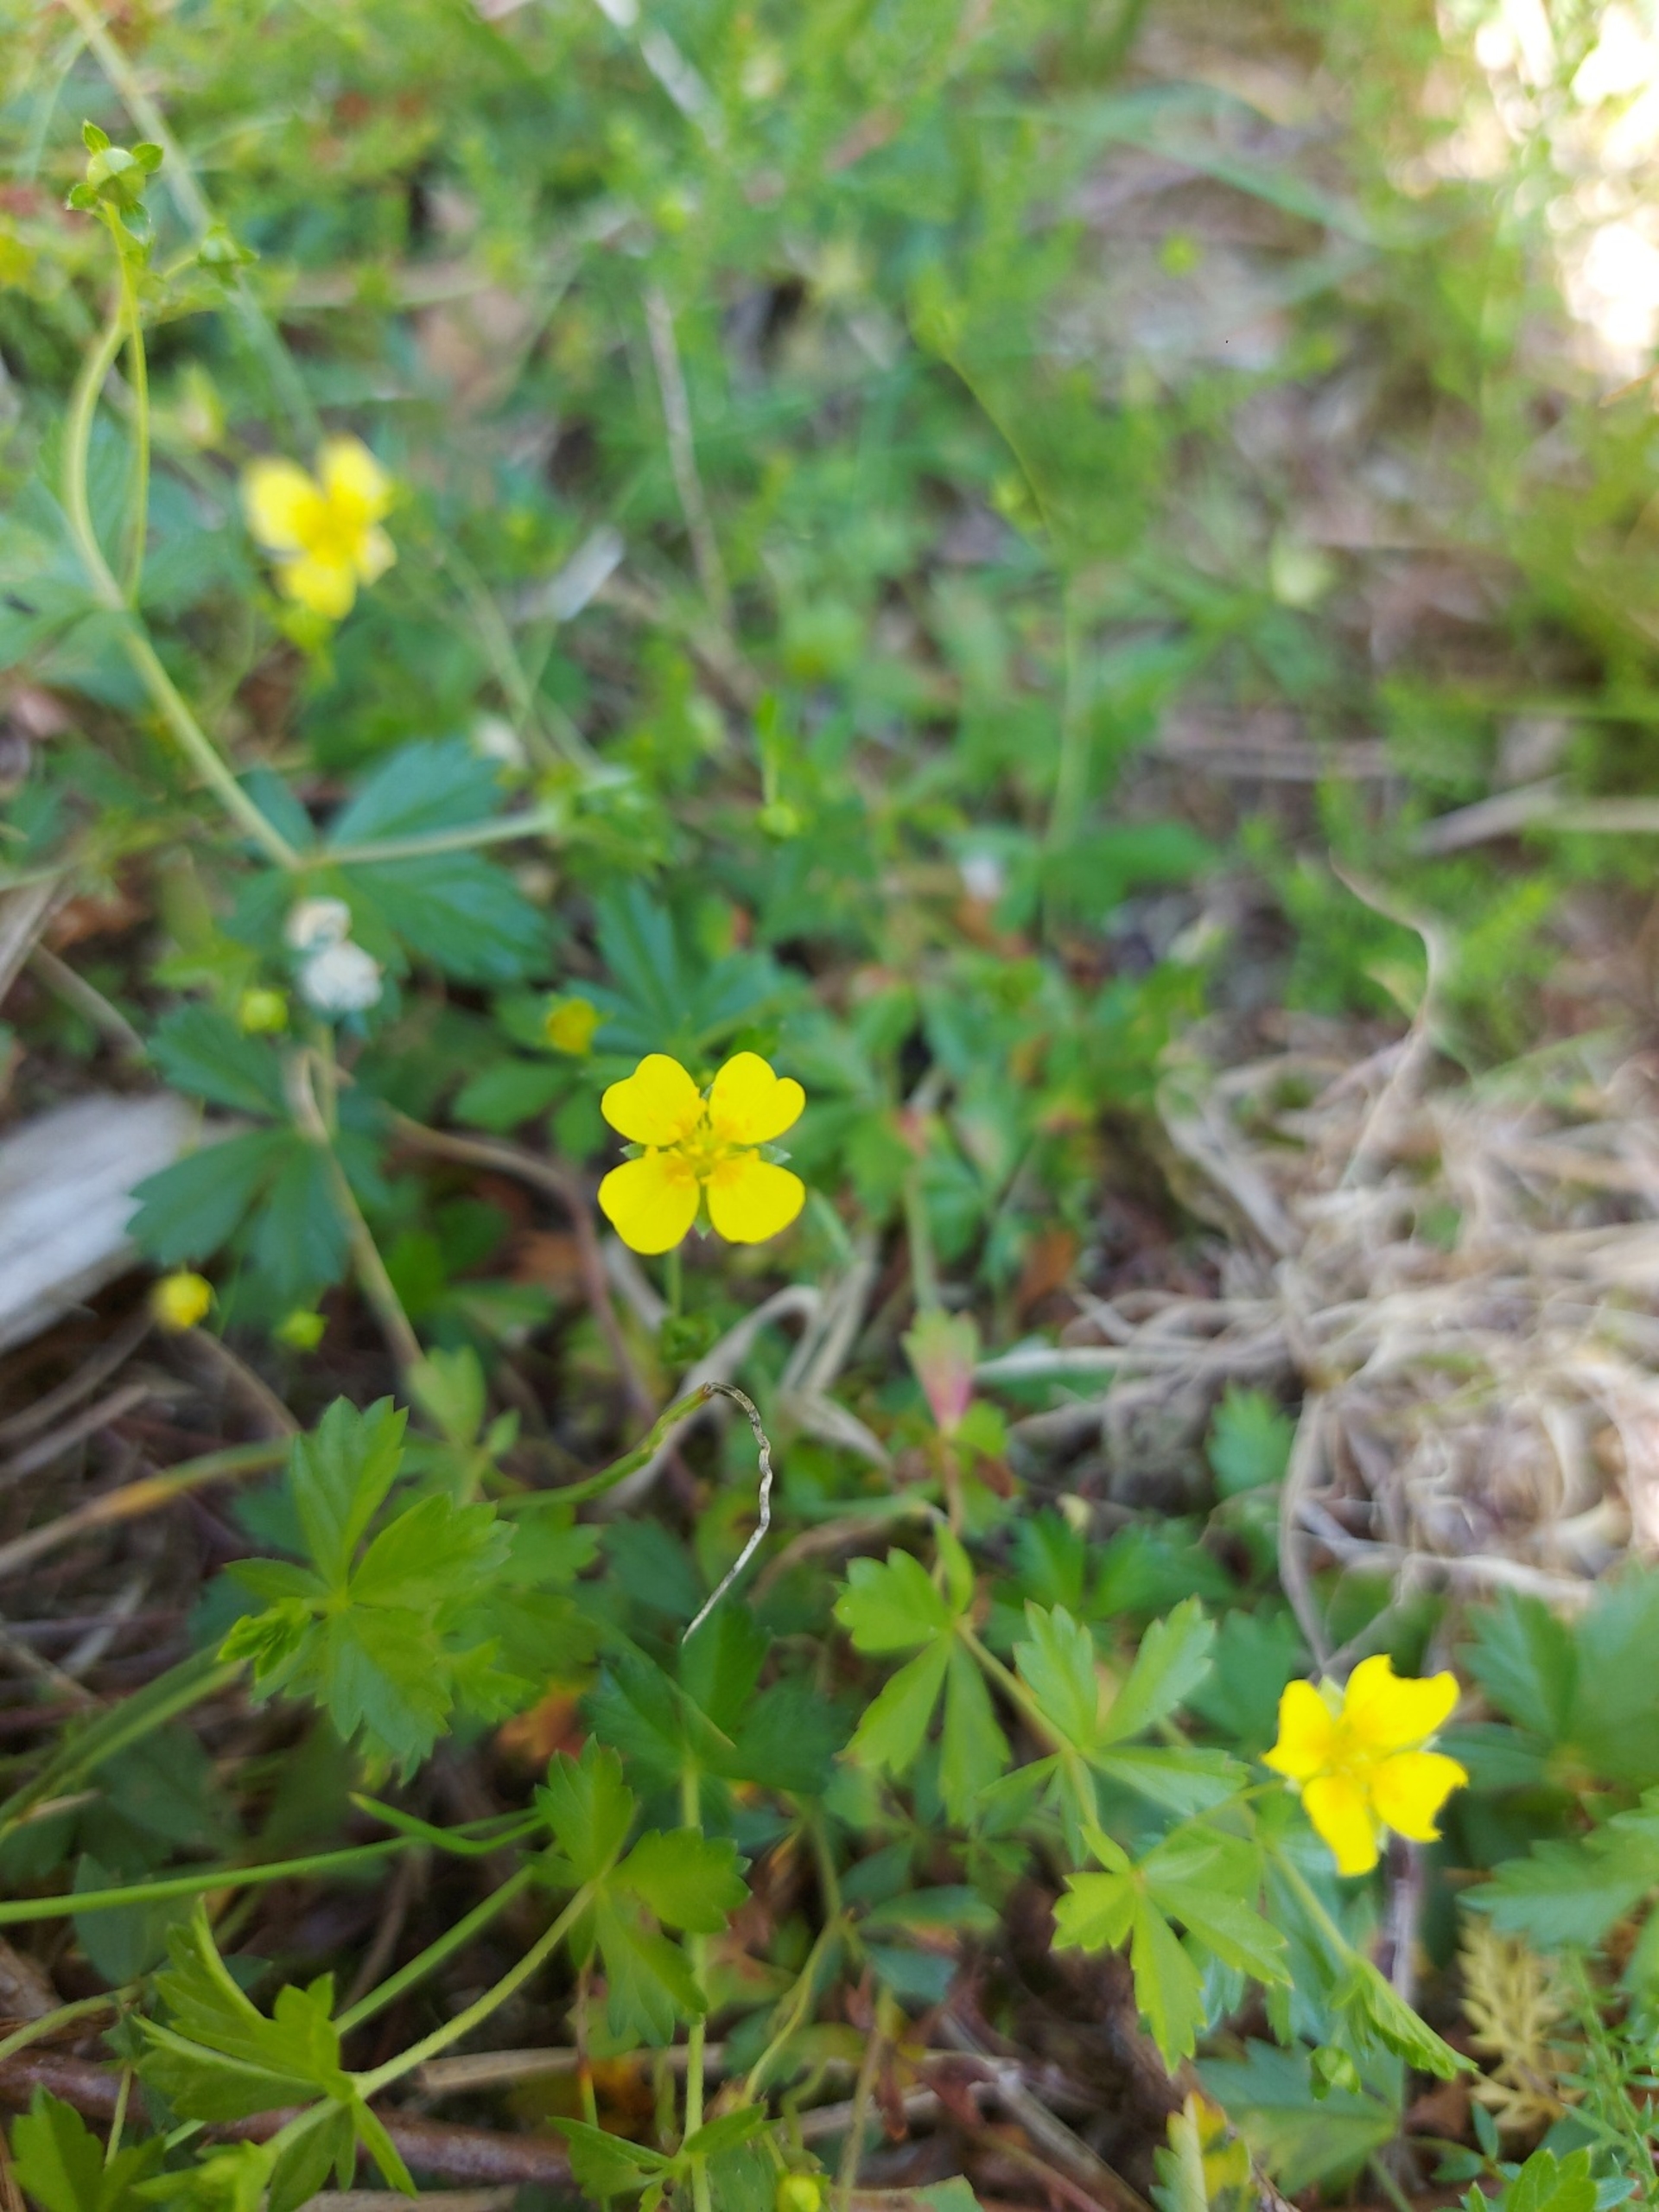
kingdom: Plantae
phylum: Tracheophyta
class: Magnoliopsida
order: Rosales
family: Rosaceae
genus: Potentilla
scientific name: Potentilla erecta
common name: Tormentil
